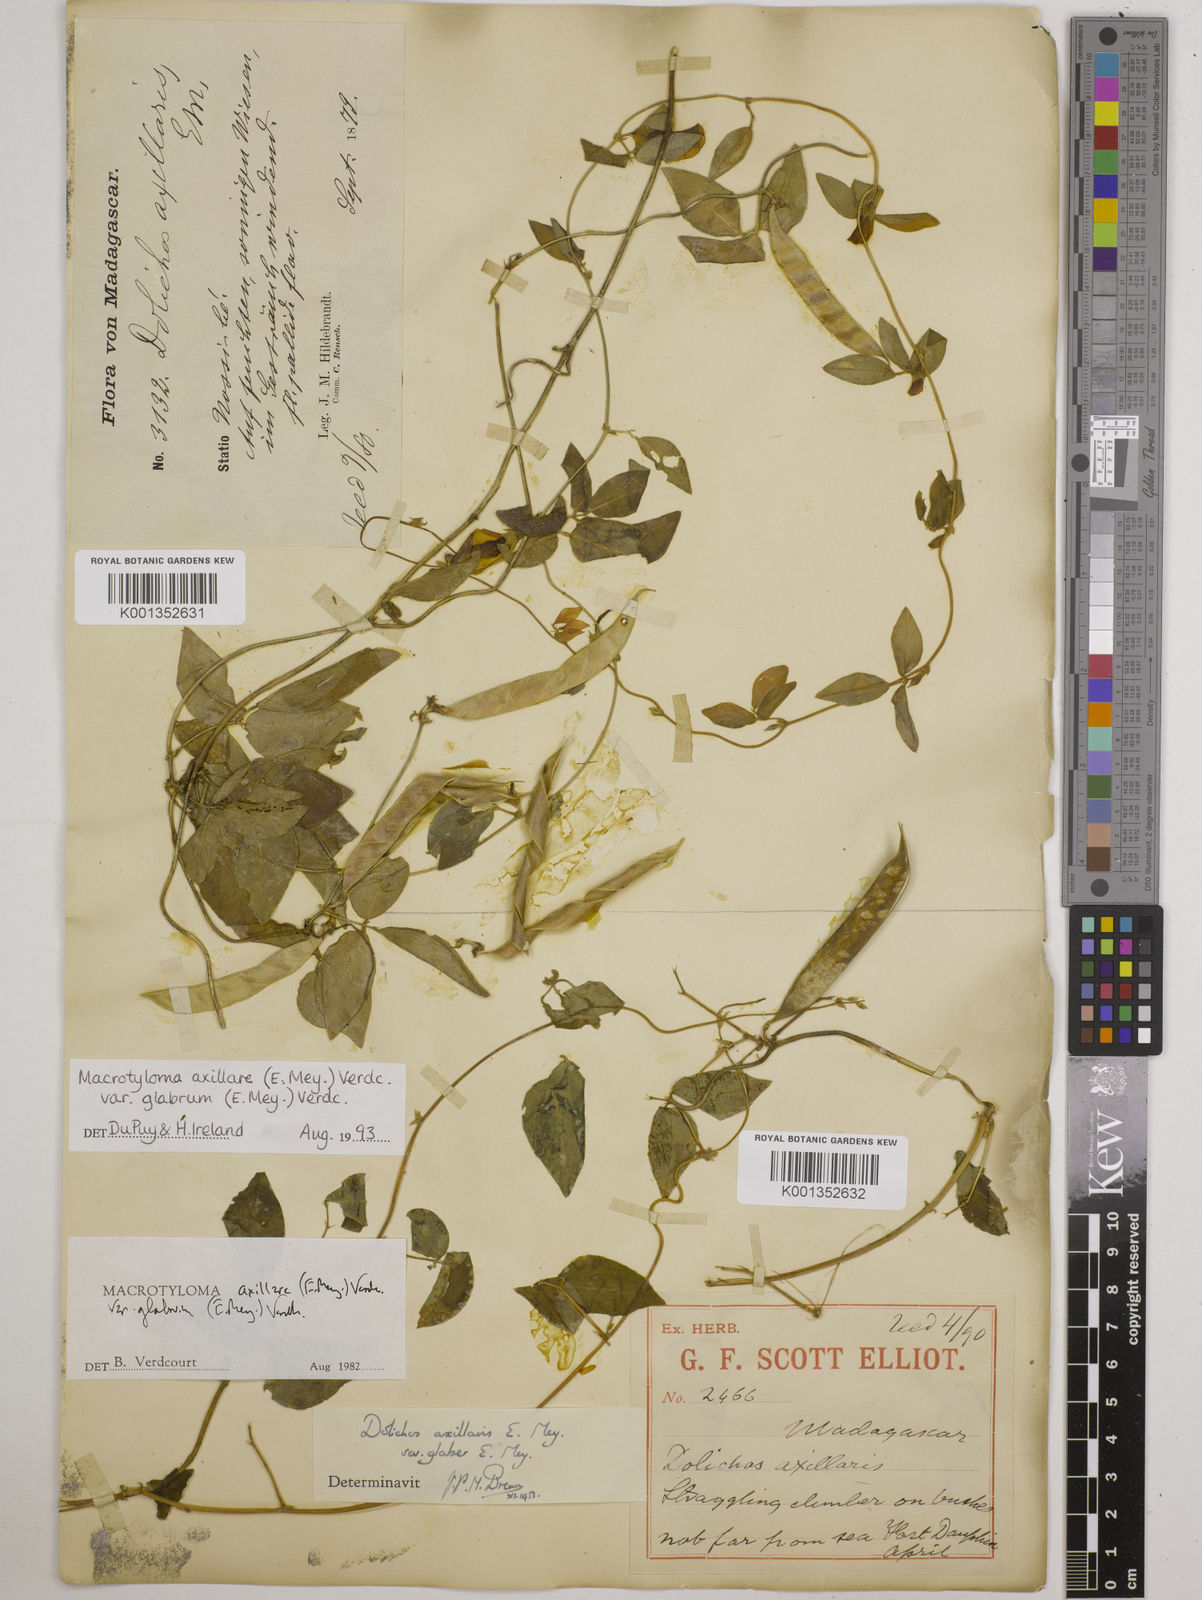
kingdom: Plantae
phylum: Tracheophyta
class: Magnoliopsida
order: Fabales
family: Fabaceae
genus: Macrotyloma
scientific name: Macrotyloma
